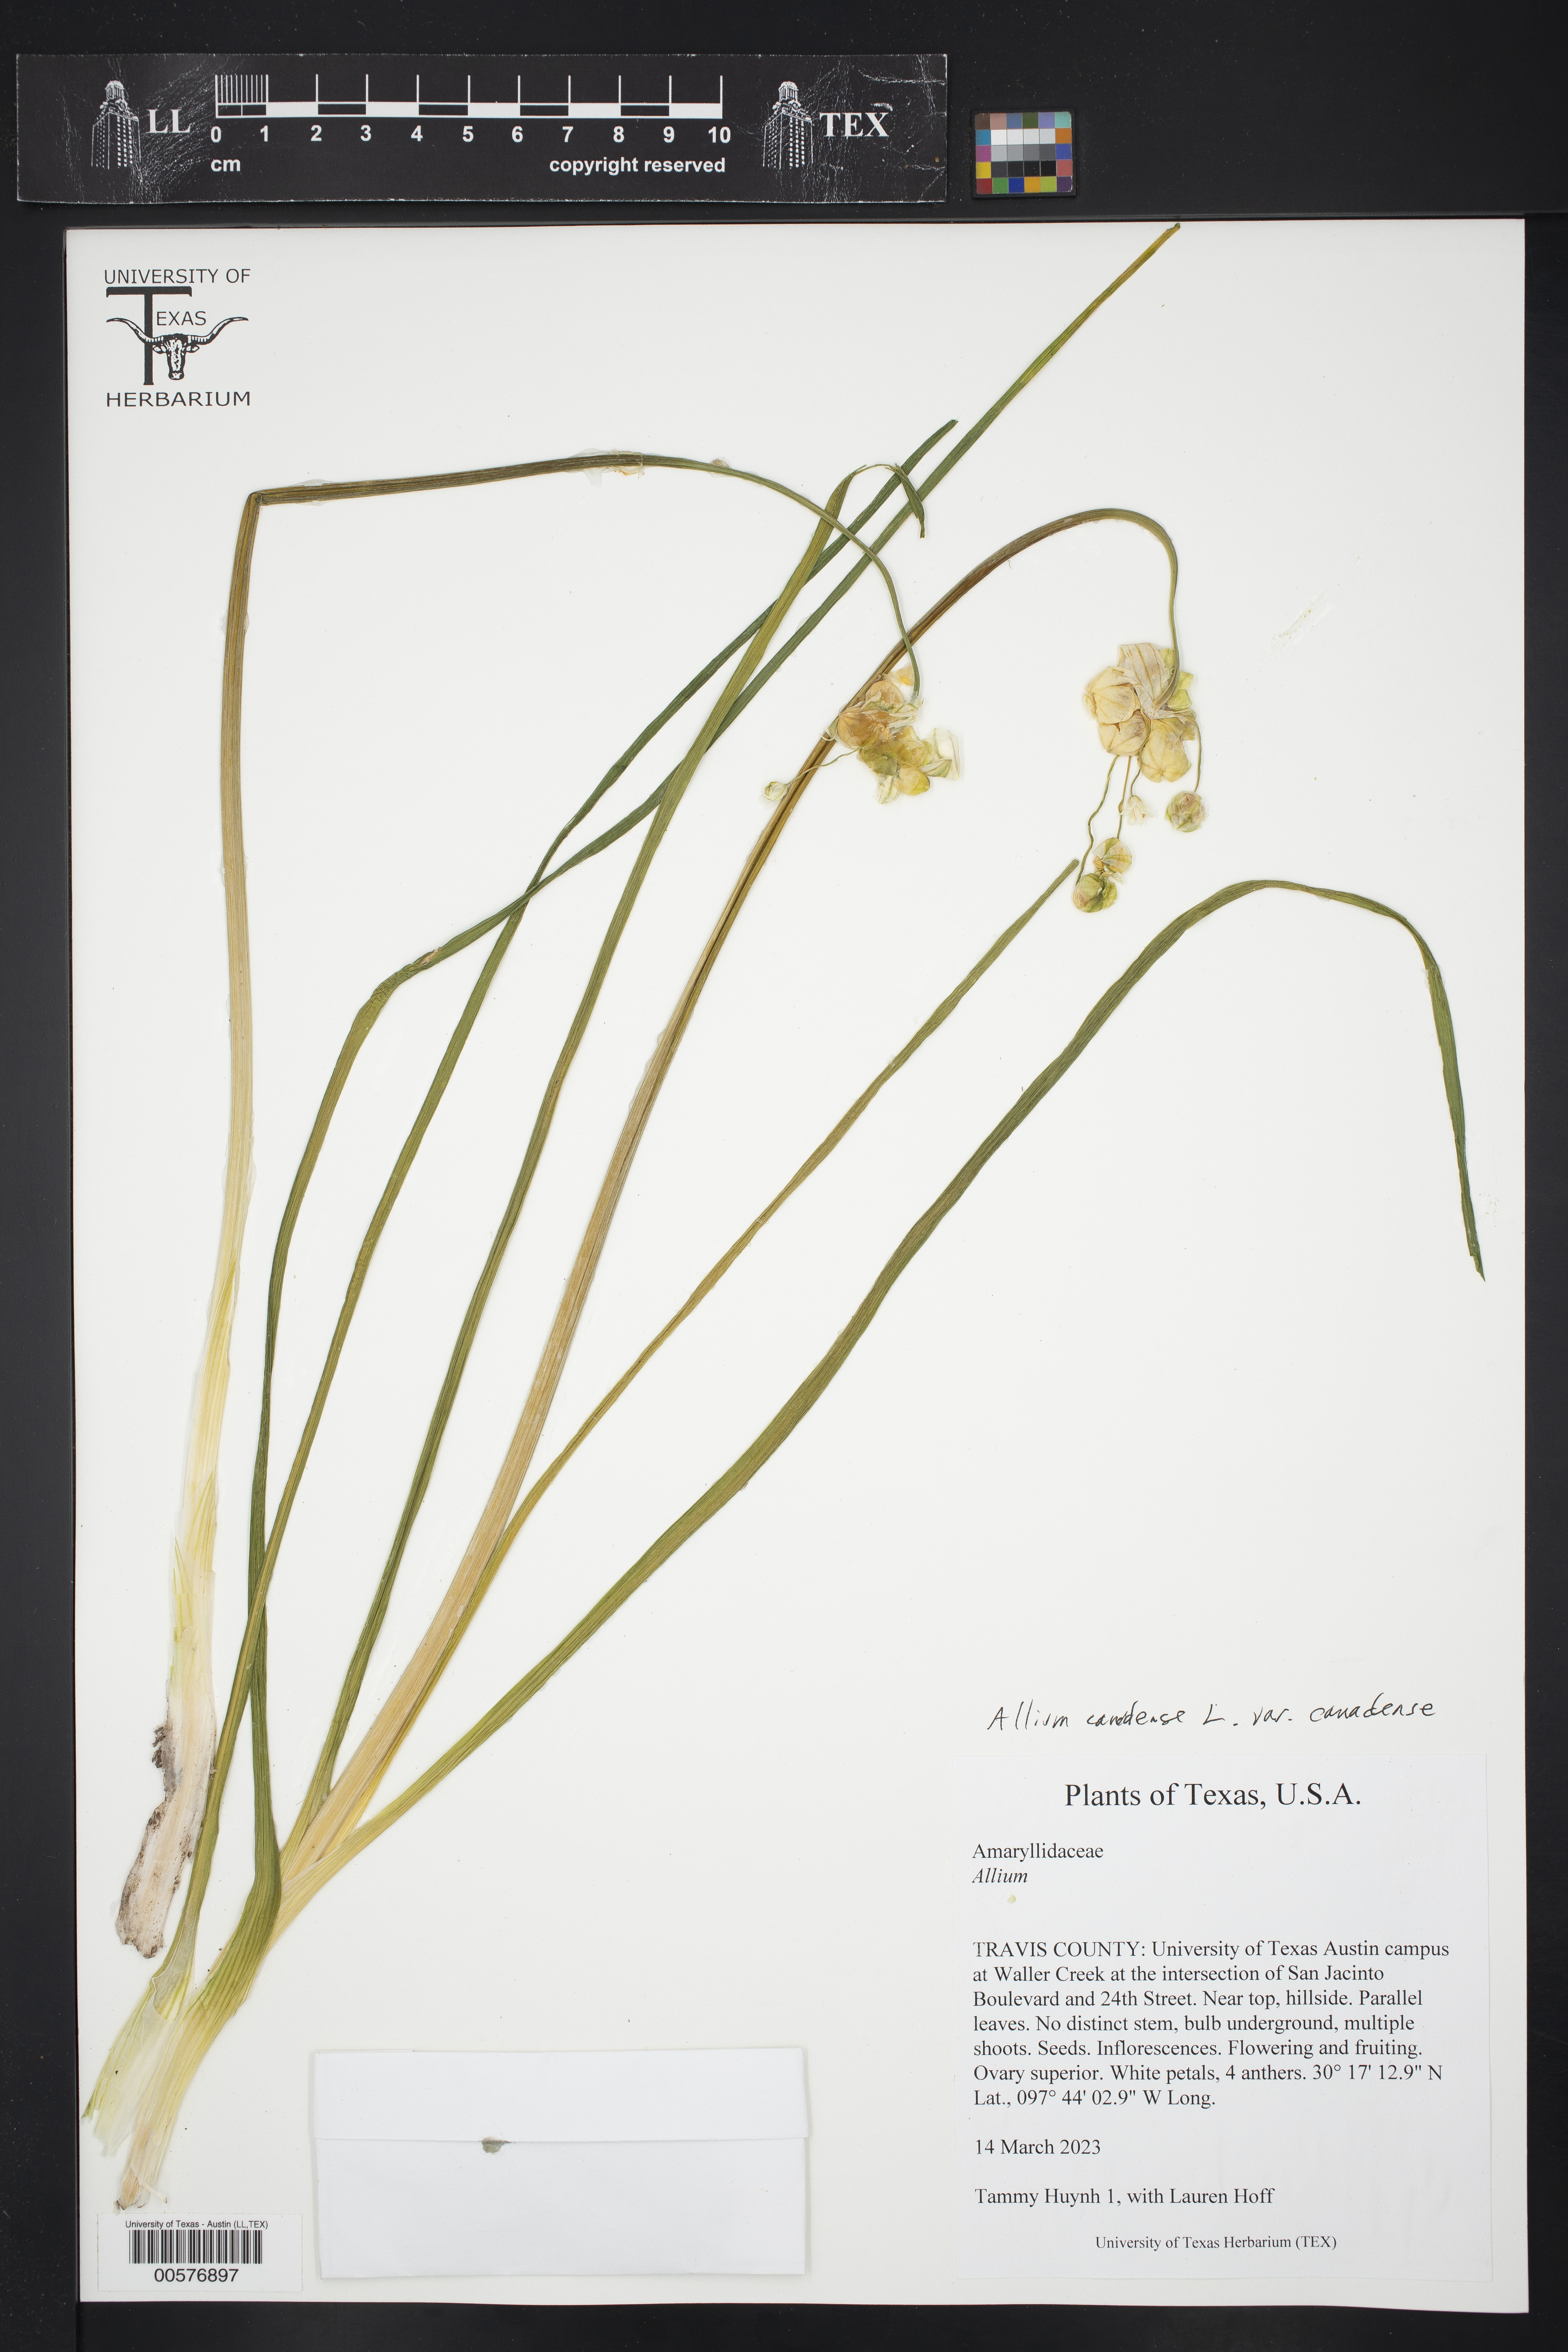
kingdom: Plantae
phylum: Tracheophyta
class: Liliopsida
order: Asparagales
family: Amaryllidaceae
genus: Allium
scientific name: Allium canadense
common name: Meadow garlic
